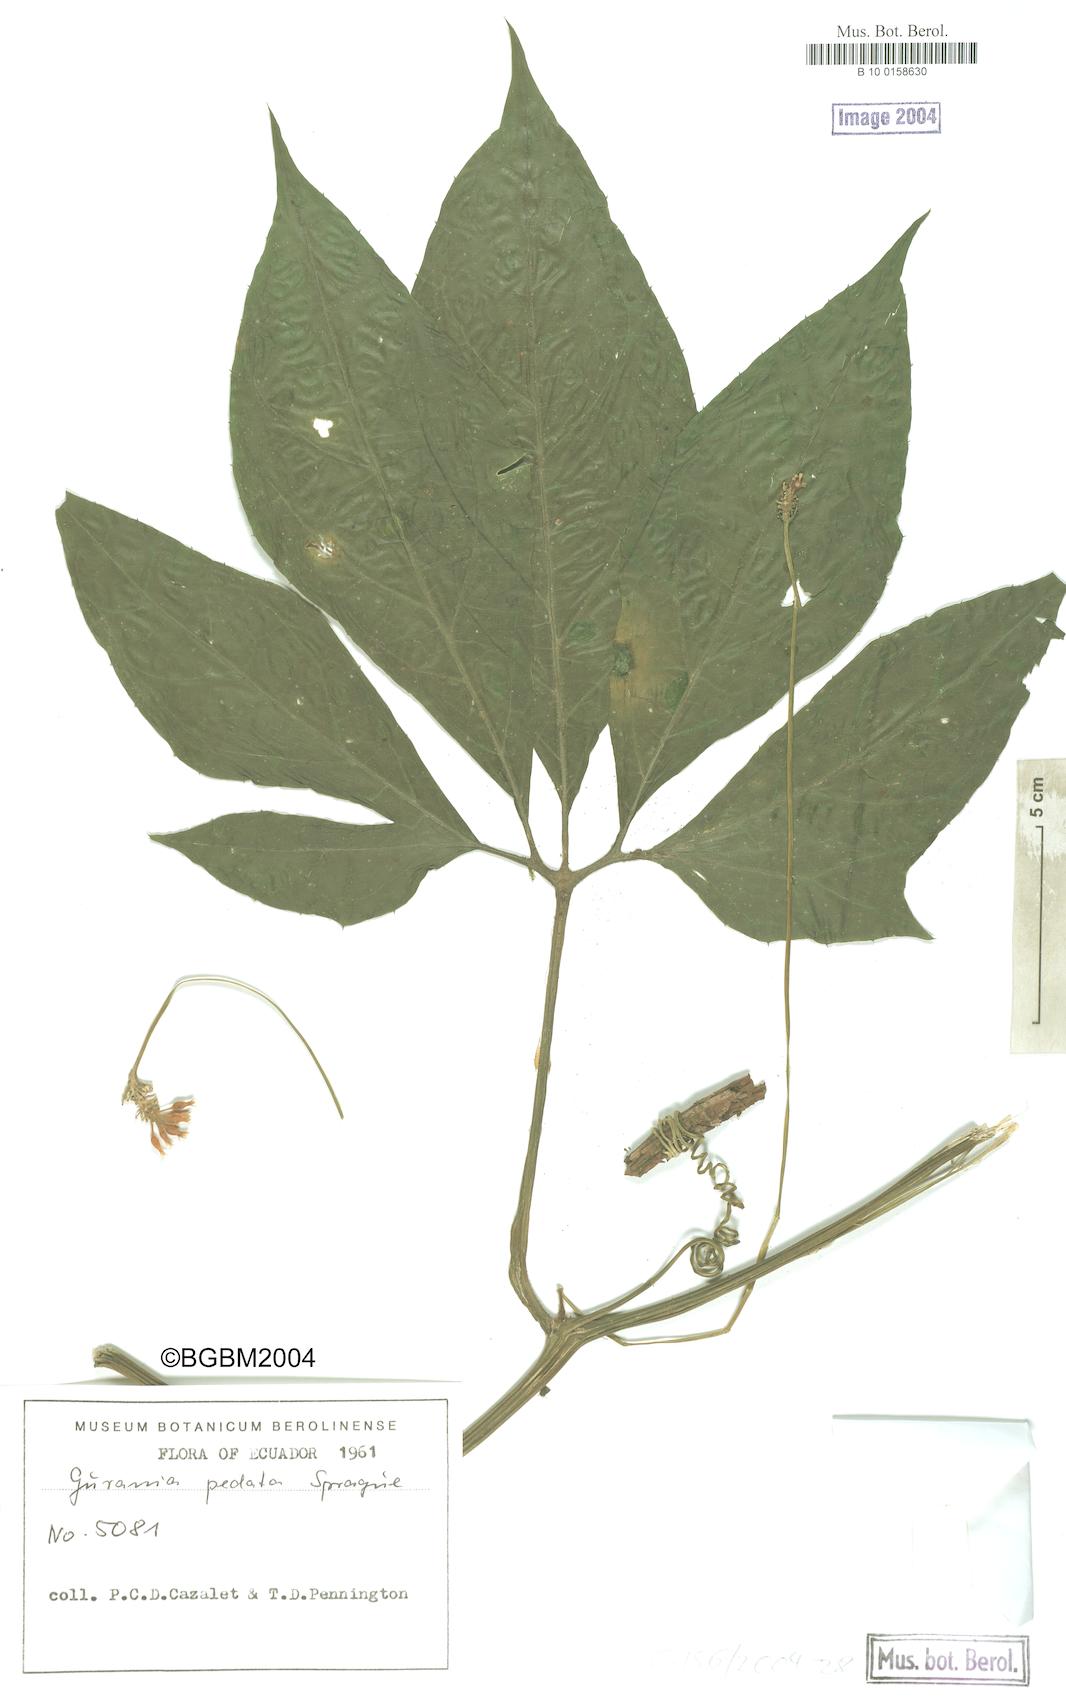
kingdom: Plantae
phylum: Tracheophyta
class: Magnoliopsida
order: Cucurbitales
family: Cucurbitaceae
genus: Gurania
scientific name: Gurania pedata
